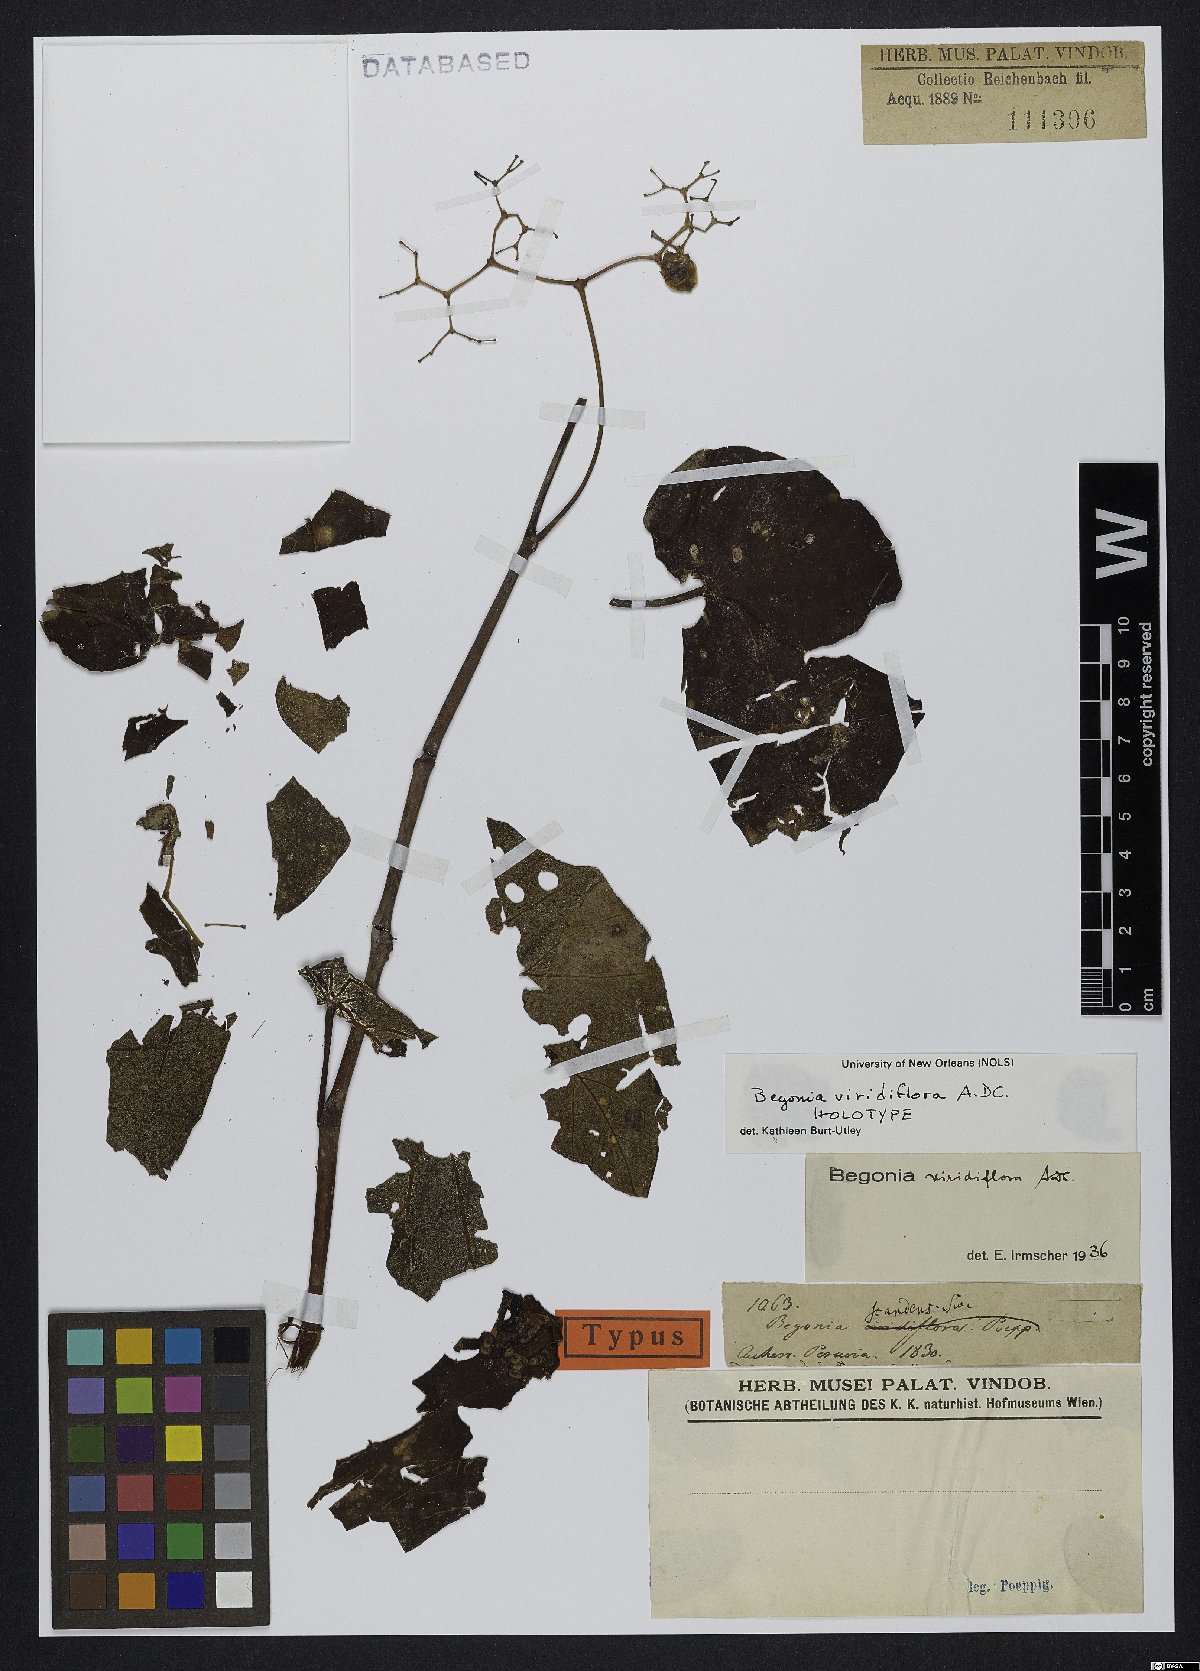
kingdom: Plantae
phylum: Tracheophyta
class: Magnoliopsida
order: Cucurbitales
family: Begoniaceae
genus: Begonia
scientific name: Begonia viridiflora
